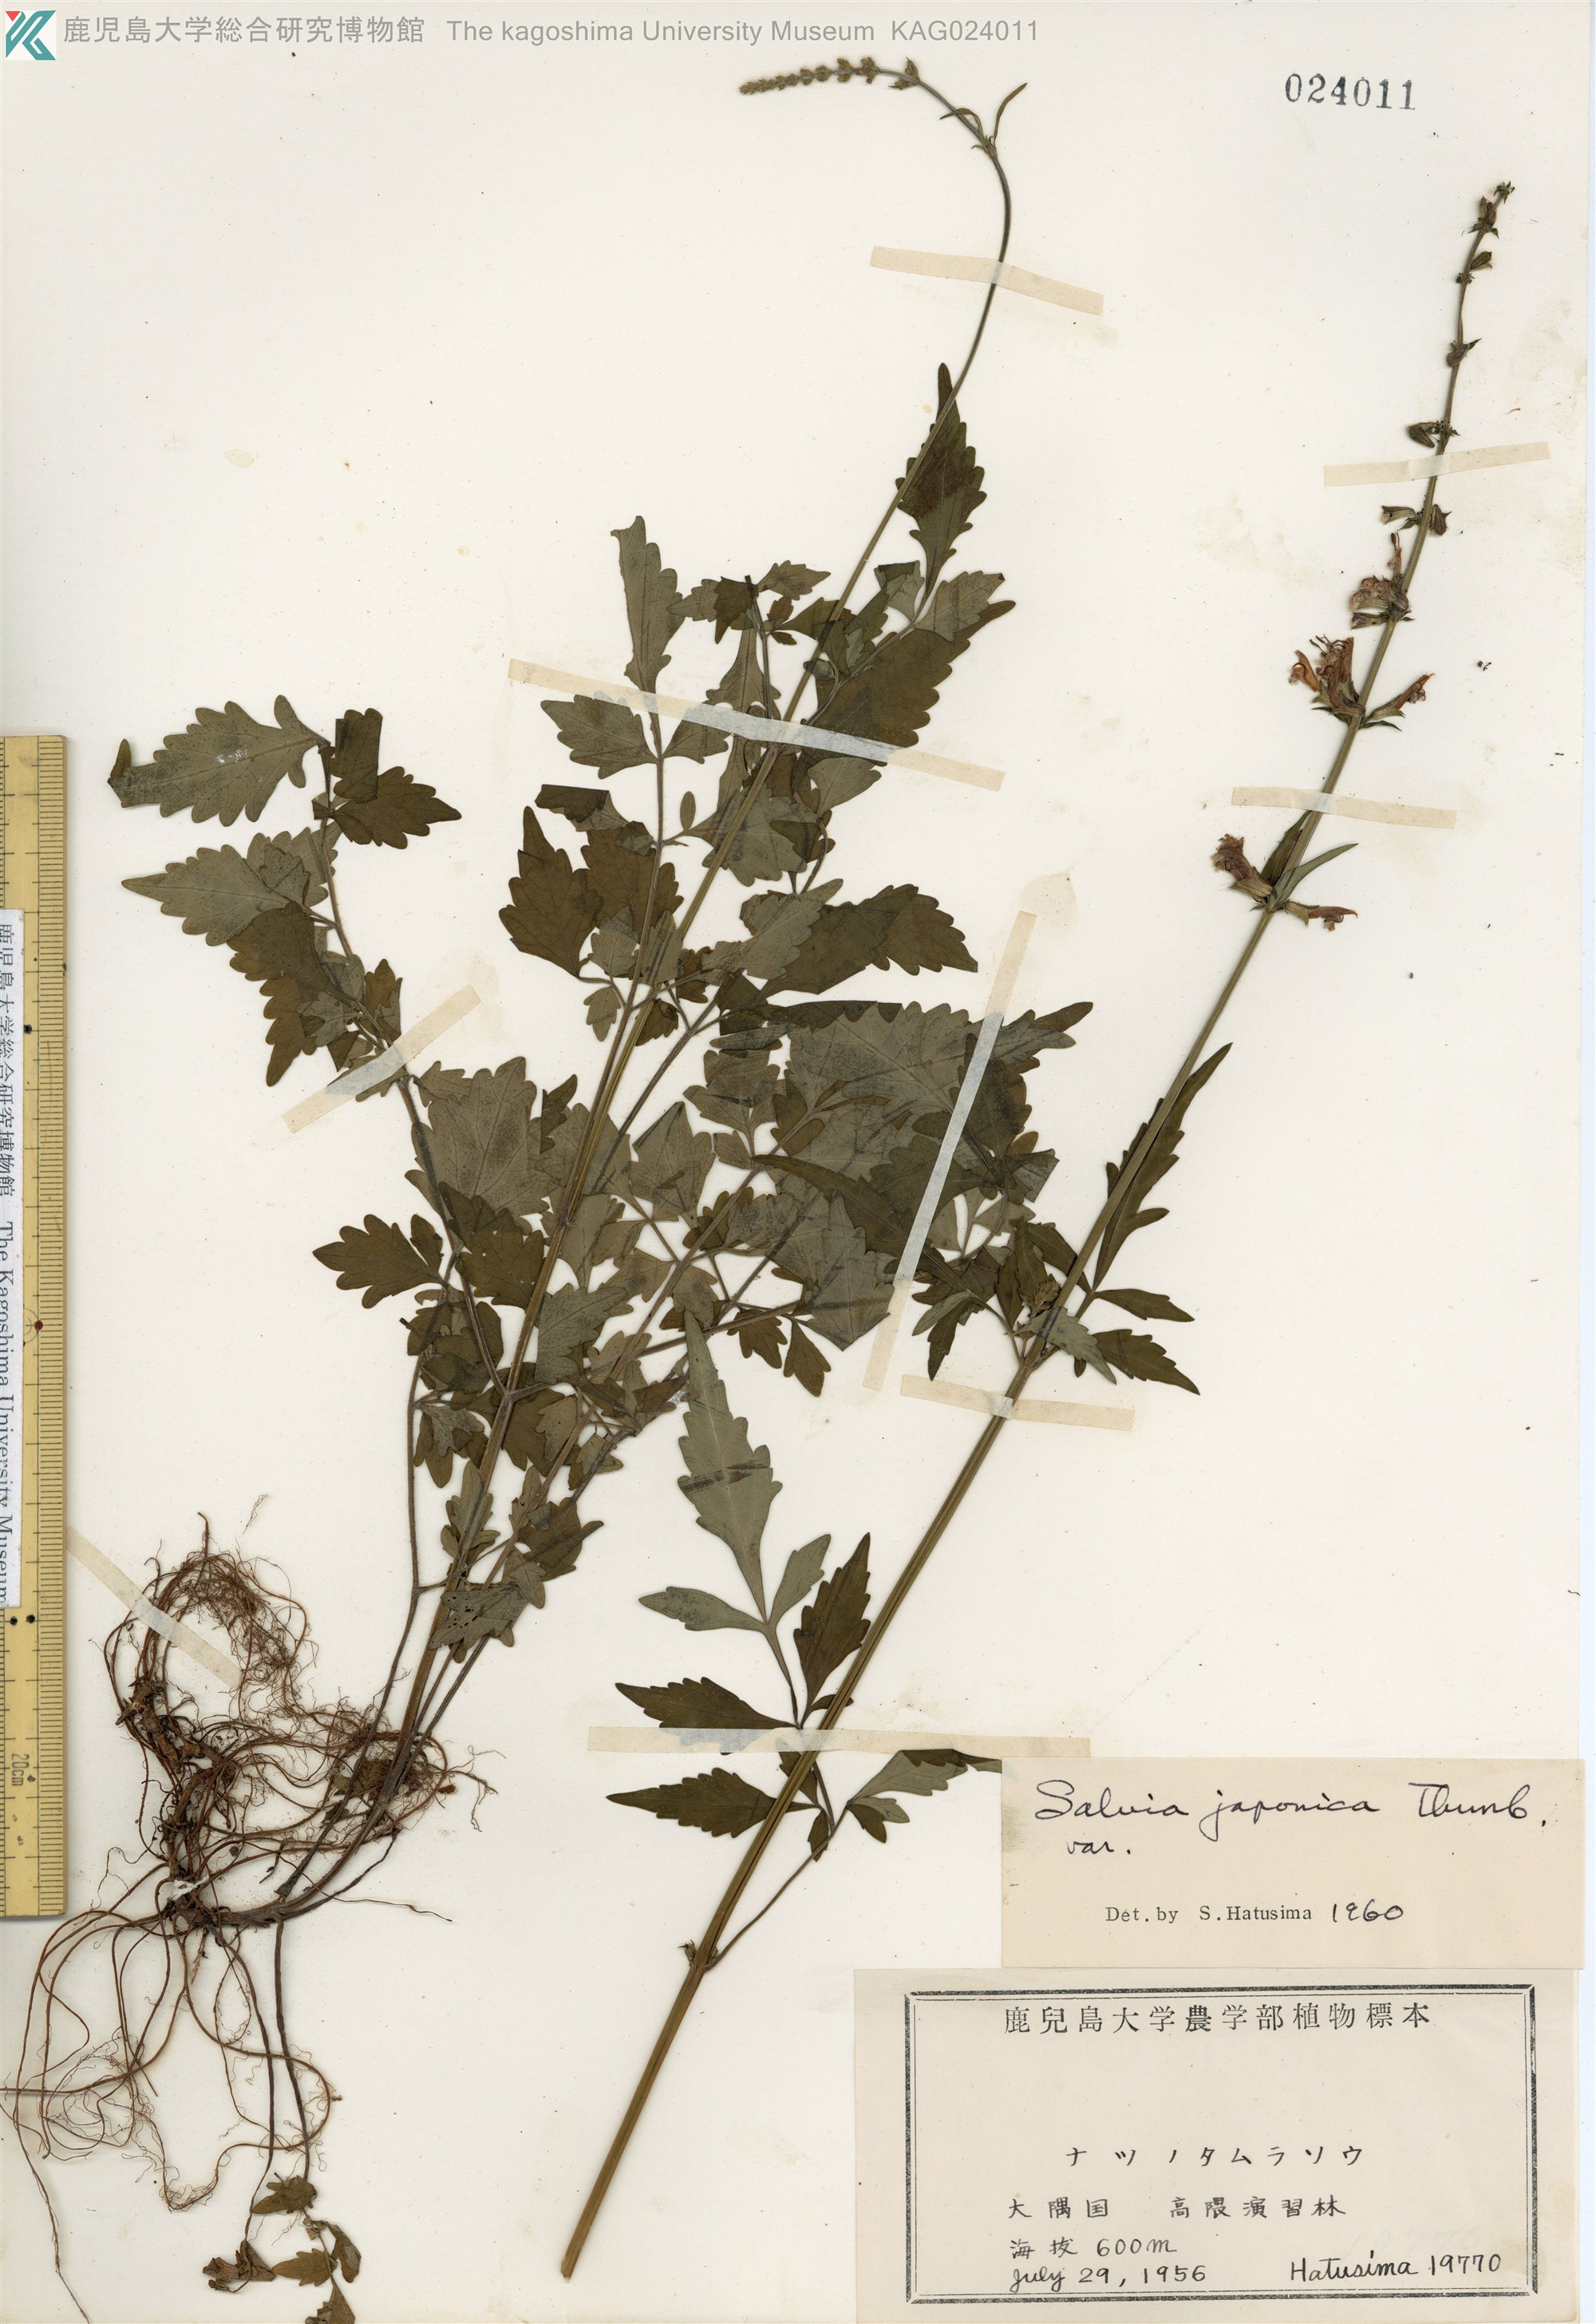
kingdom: Plantae
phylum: Tracheophyta
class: Magnoliopsida
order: Lamiales
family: Lamiaceae
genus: Salvia
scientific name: Salvia japonica
